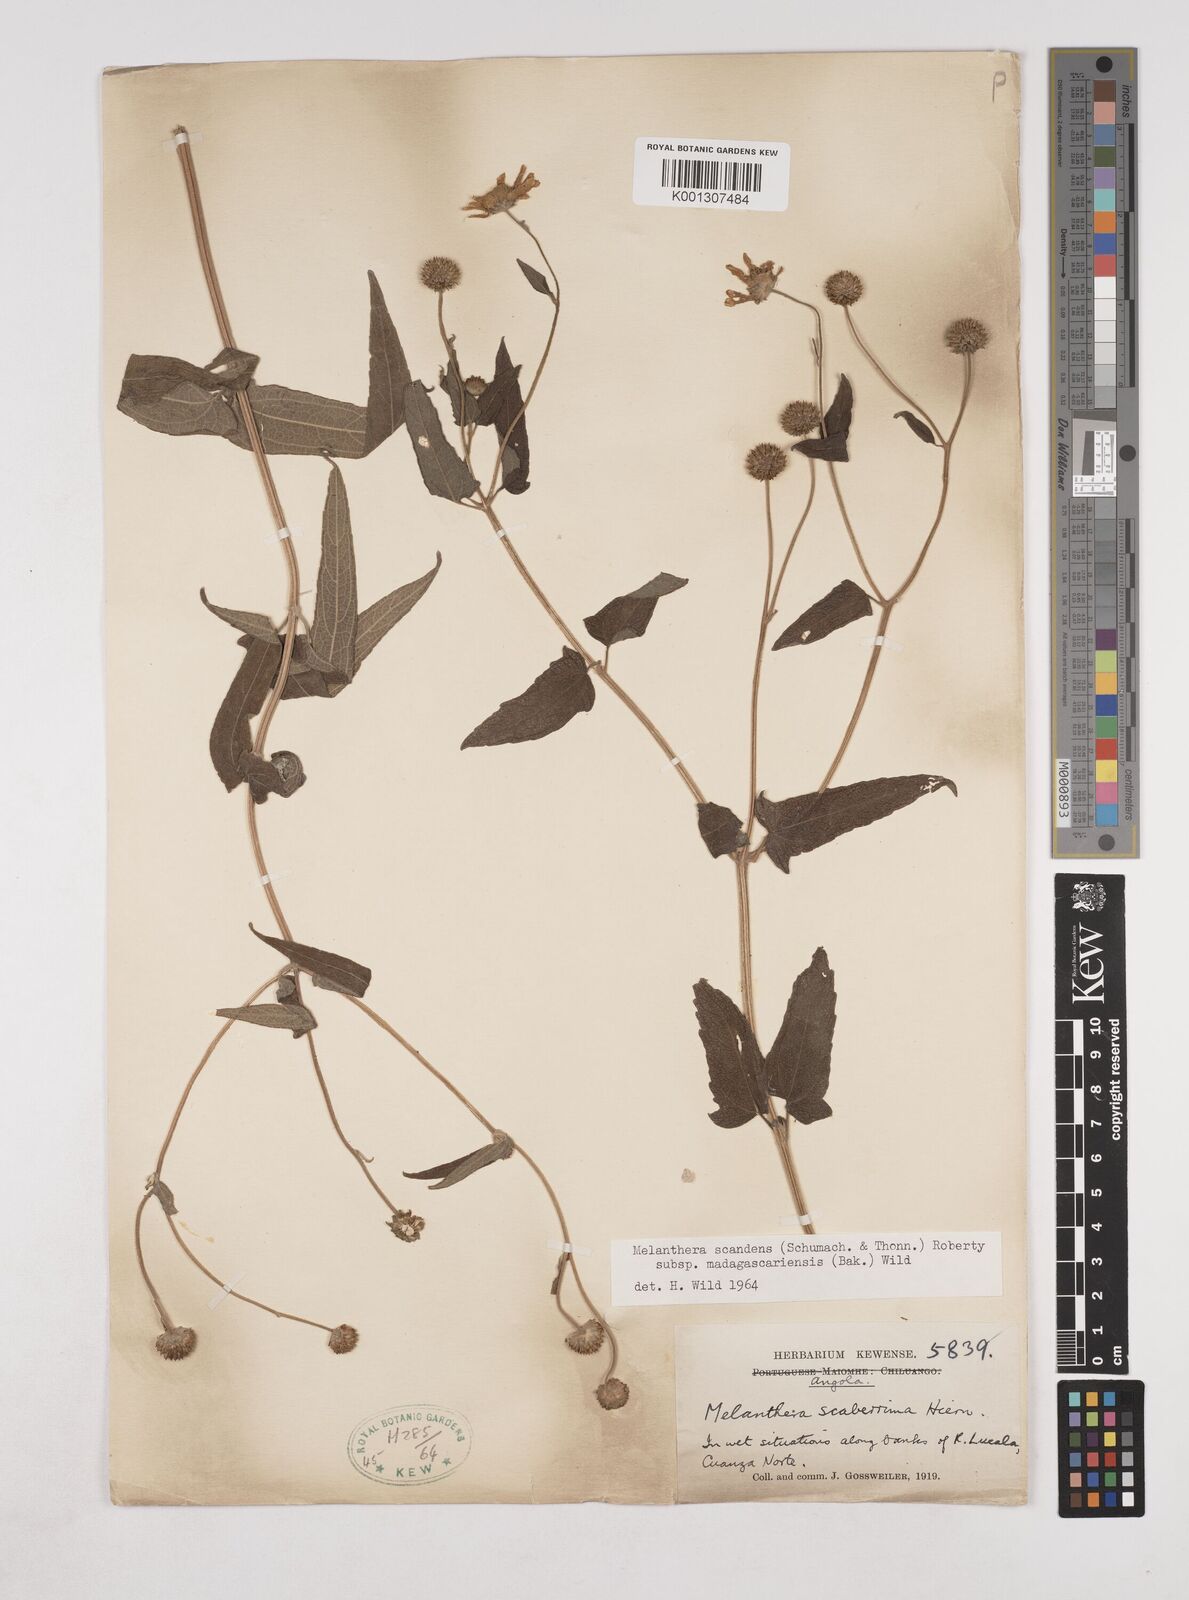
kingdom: Plantae
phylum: Tracheophyta
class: Magnoliopsida
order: Asterales
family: Asteraceae
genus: Lipotriche
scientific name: Lipotriche scandens
